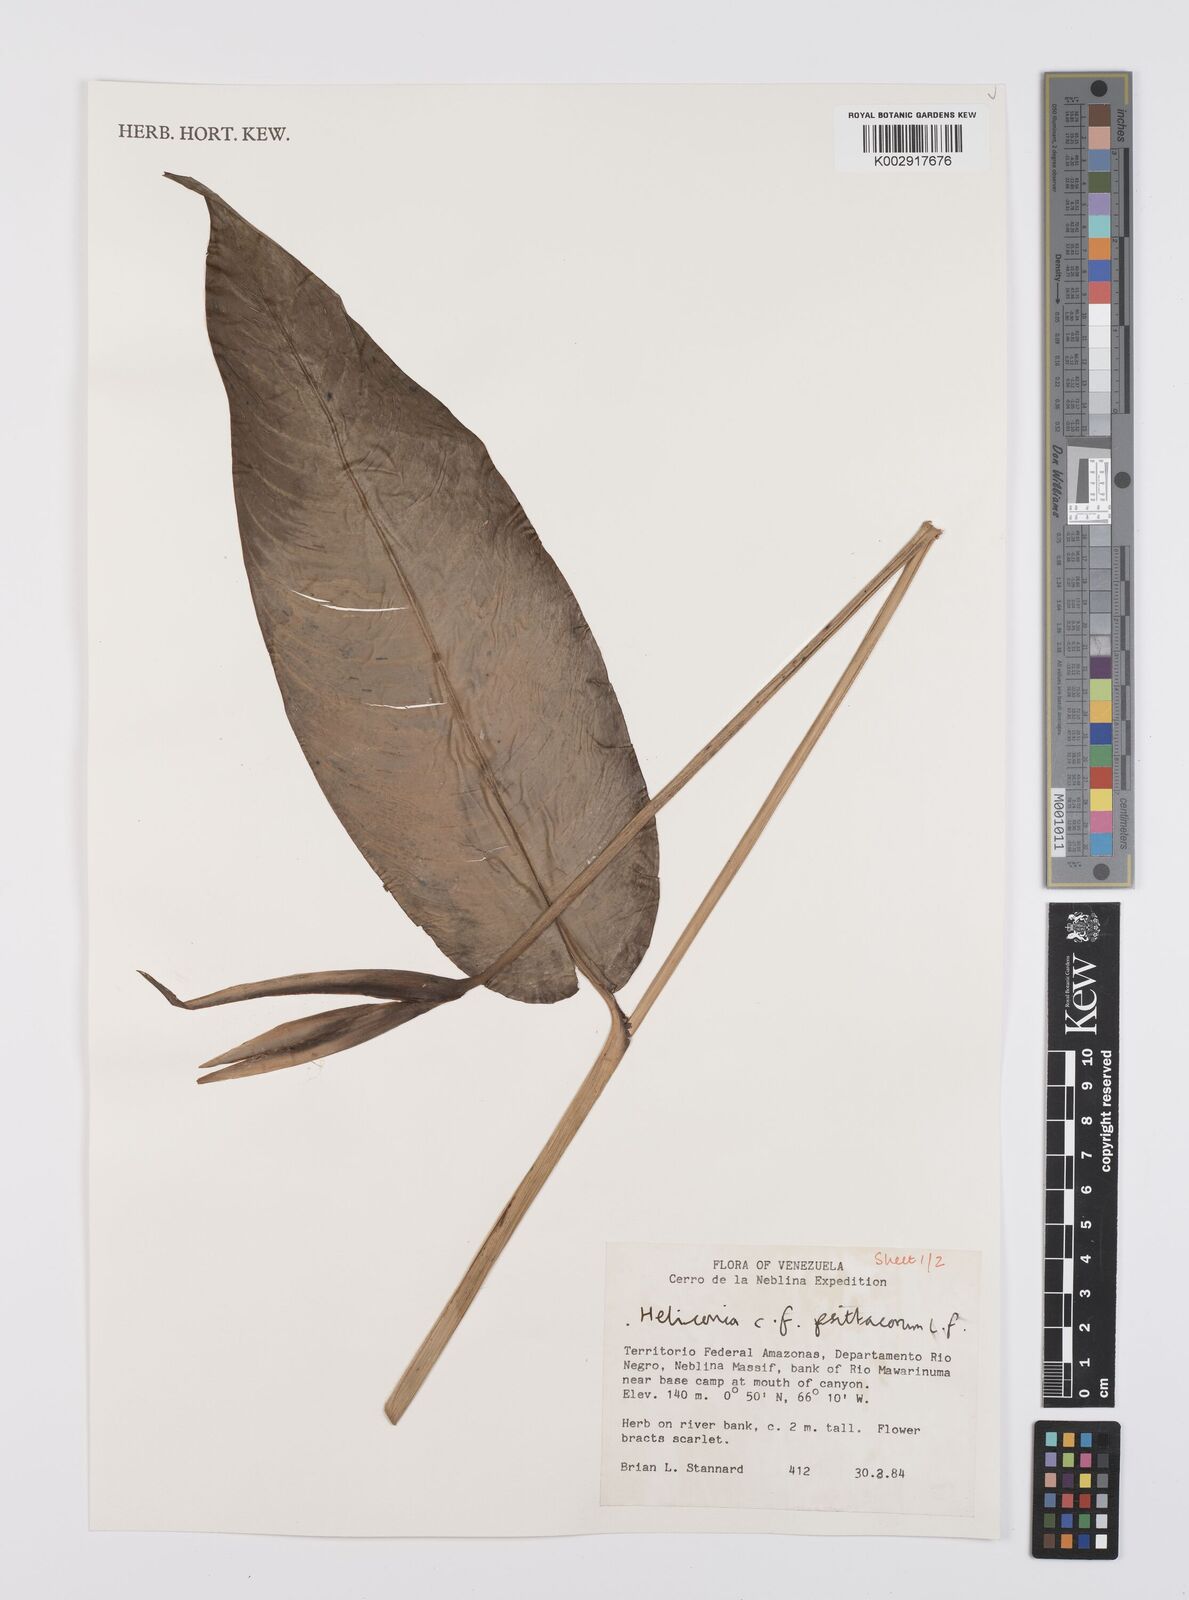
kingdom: Plantae
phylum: Tracheophyta
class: Liliopsida
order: Zingiberales
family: Heliconiaceae
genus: Heliconia
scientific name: Heliconia psittacorum
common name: Parrot's-flower
